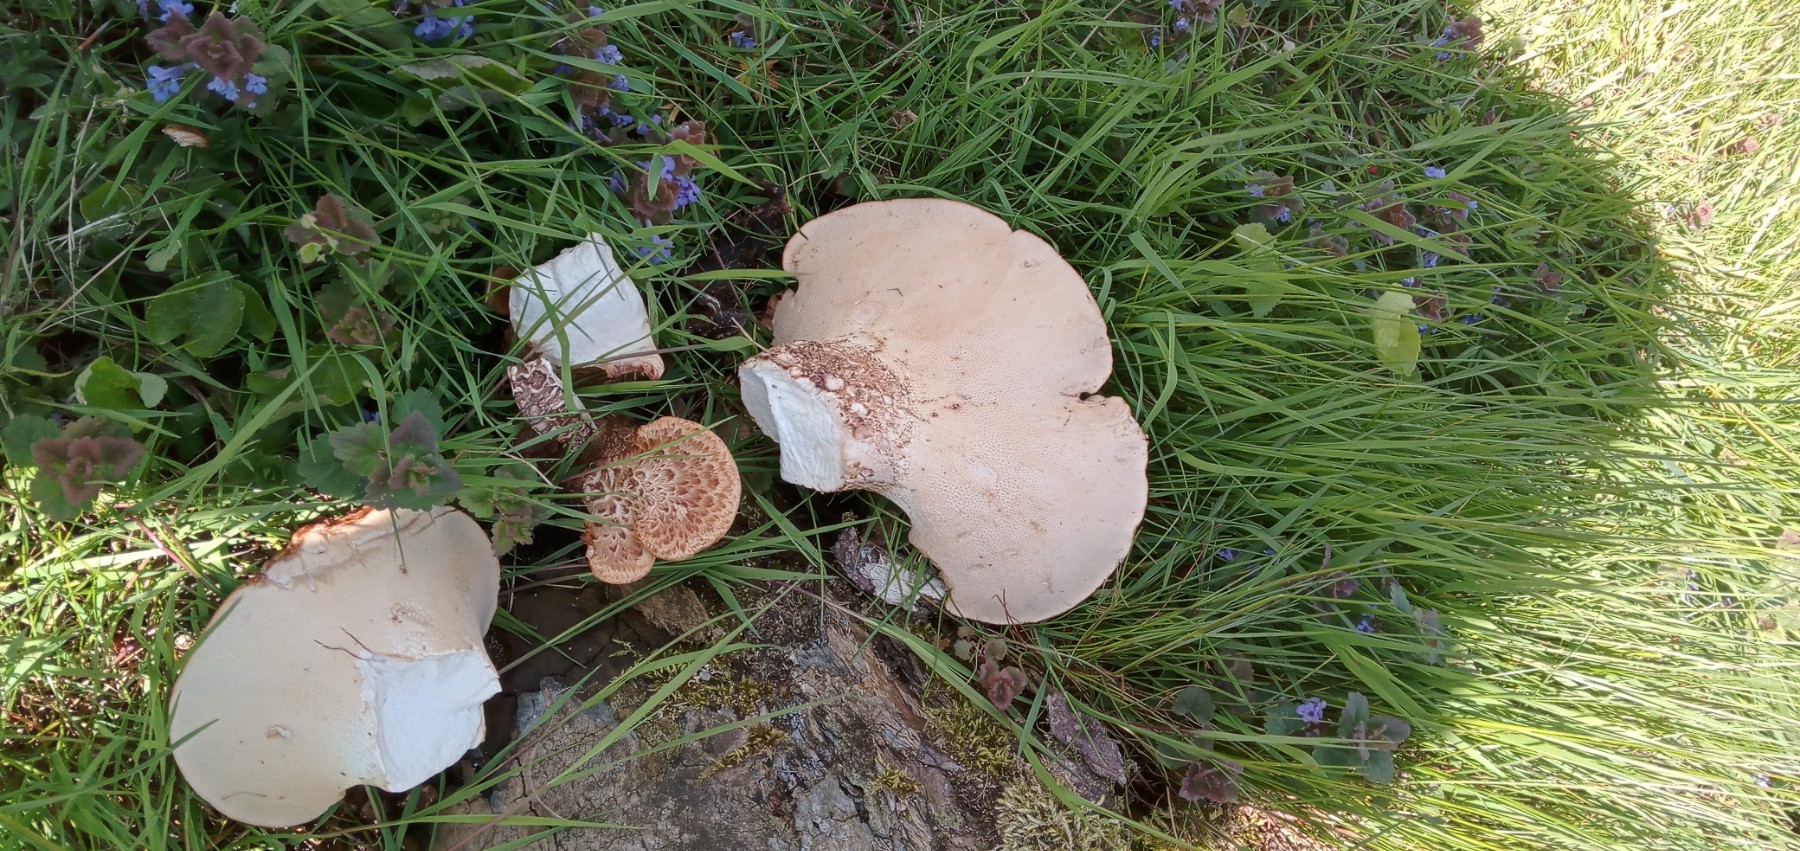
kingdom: Fungi
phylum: Basidiomycota
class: Agaricomycetes
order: Polyporales
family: Polyporaceae
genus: Cerioporus
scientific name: Cerioporus squamosus
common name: skællet stilkporesvamp
